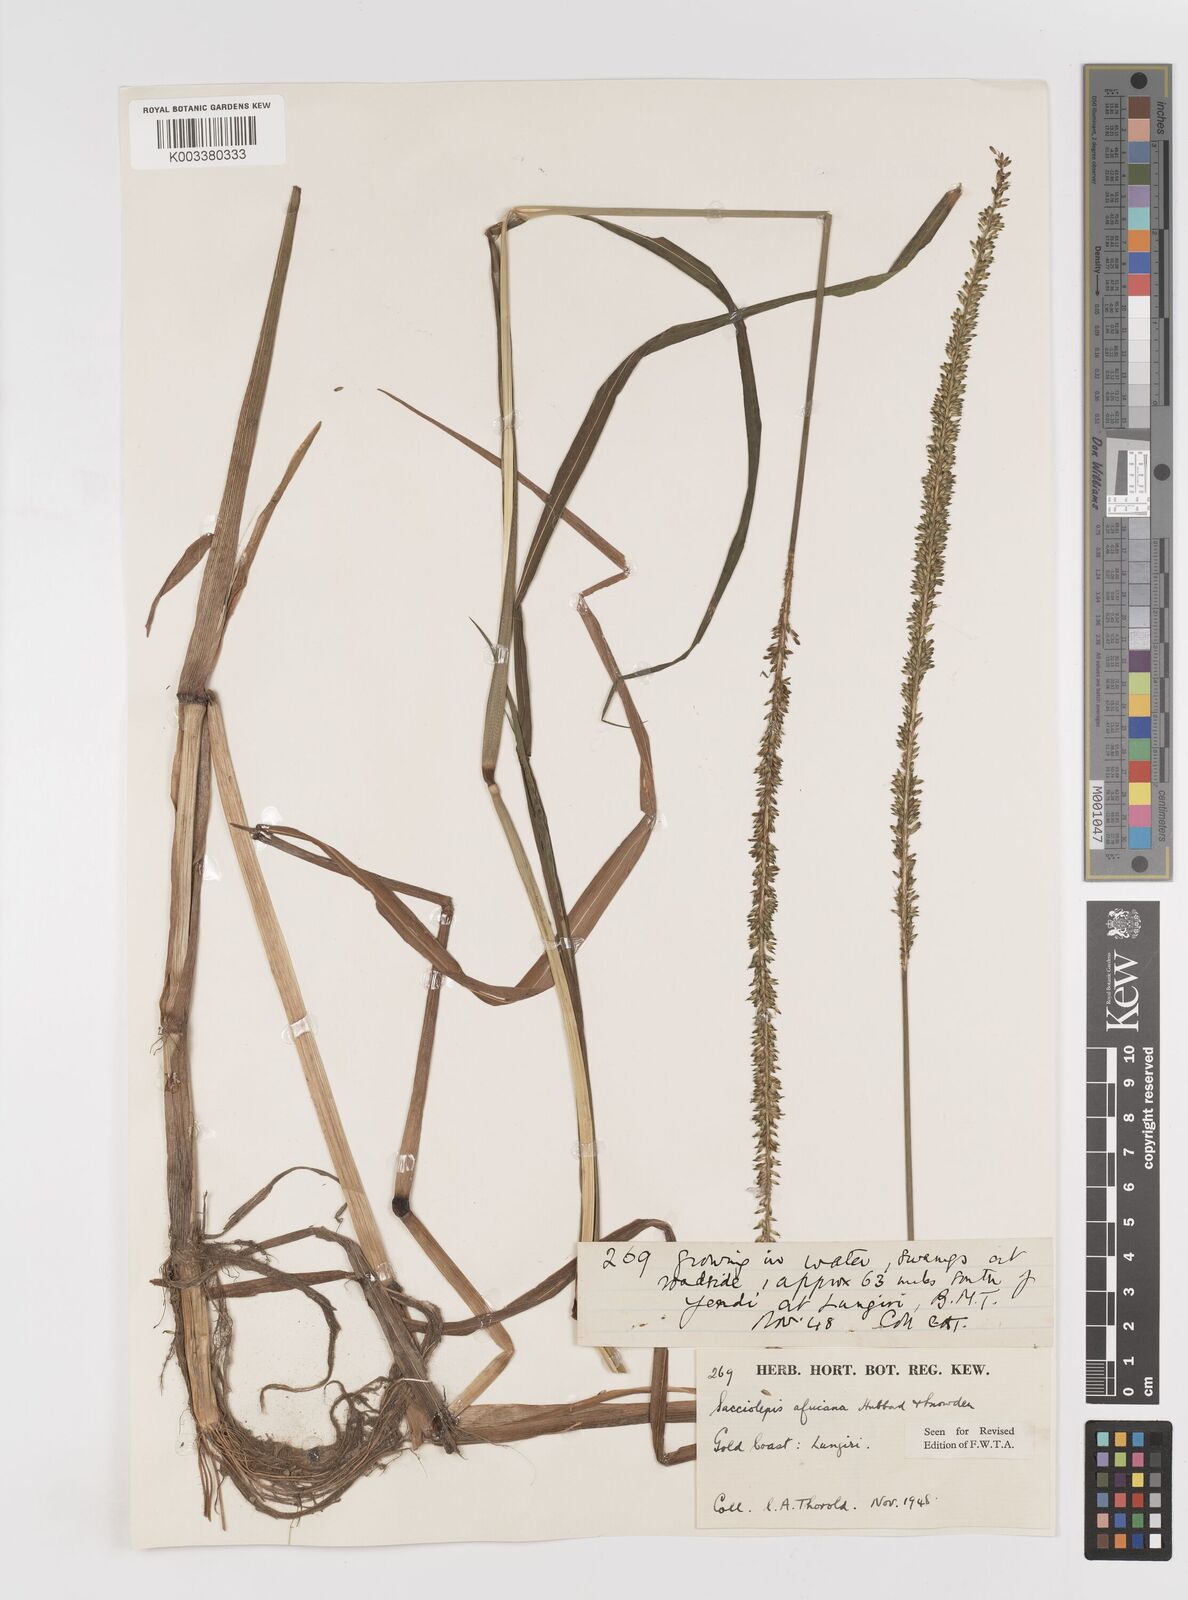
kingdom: Plantae
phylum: Tracheophyta
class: Liliopsida
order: Poales
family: Poaceae
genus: Sacciolepis
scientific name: Sacciolepis africana
